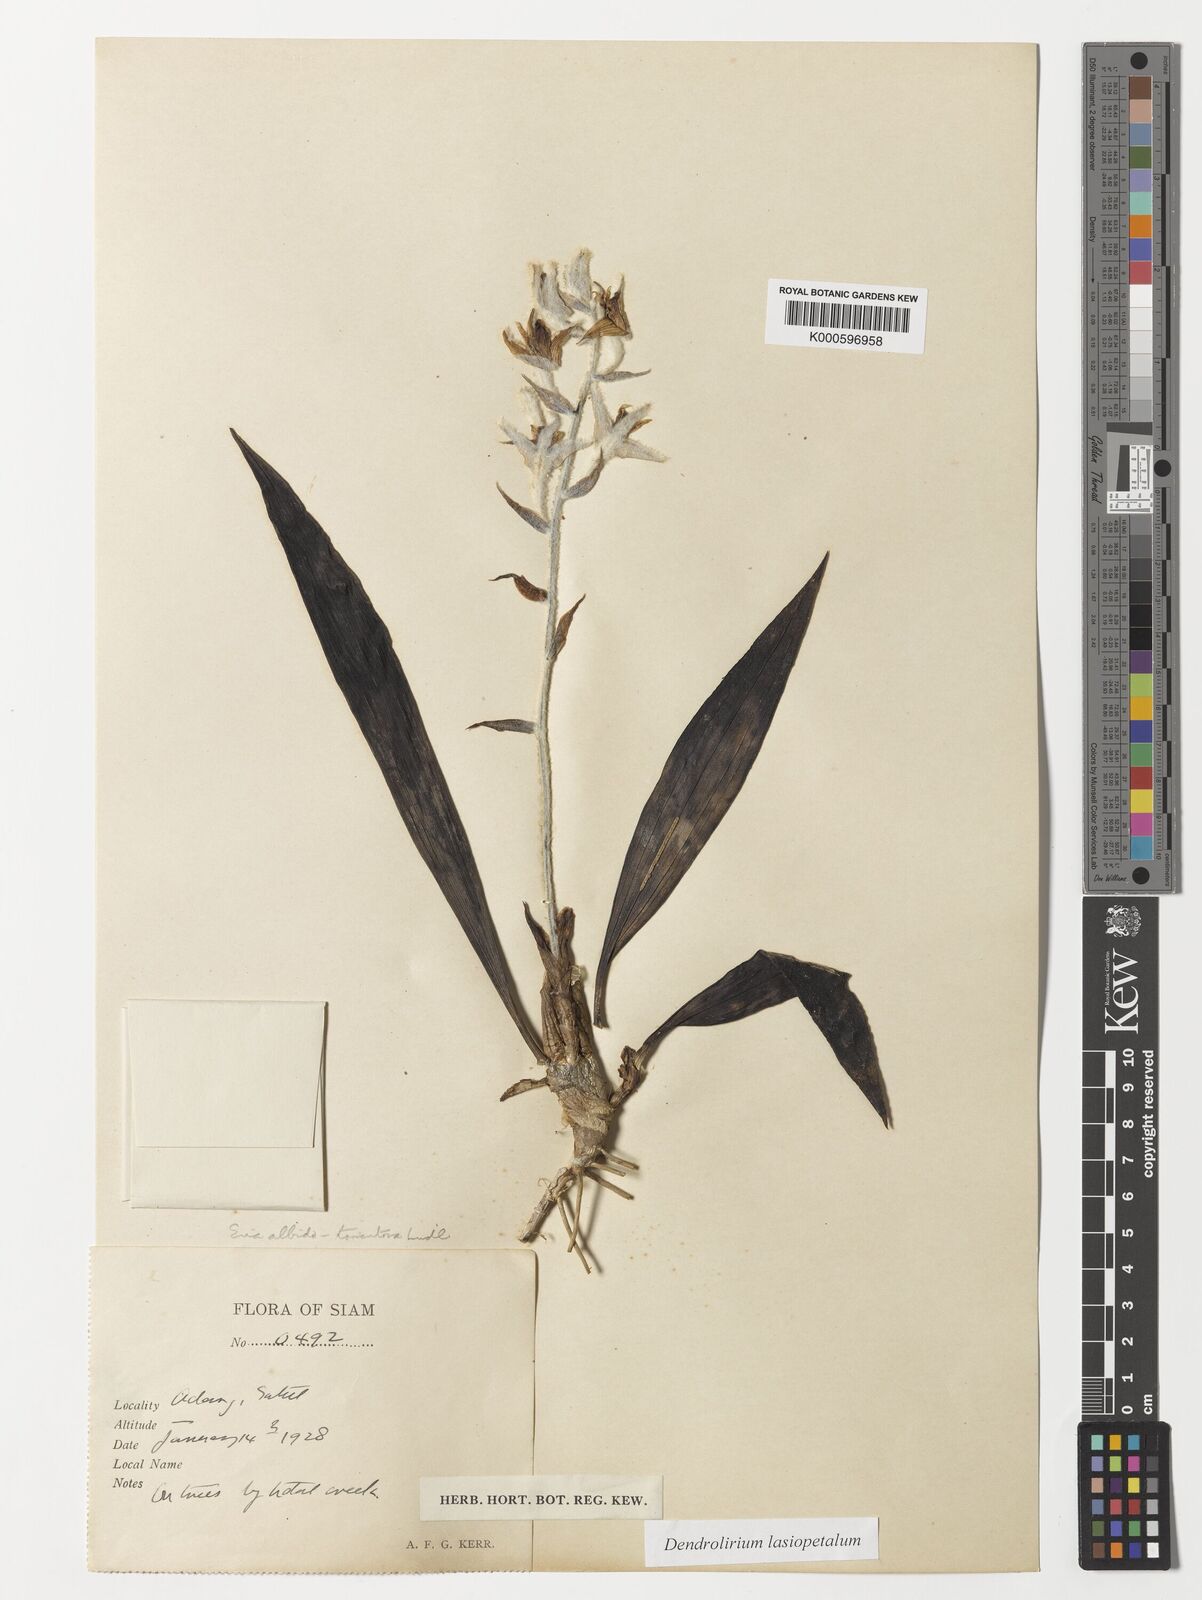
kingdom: Plantae
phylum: Tracheophyta
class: Liliopsida
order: Asparagales
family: Orchidaceae
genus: Dendrolirium
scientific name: Dendrolirium lasiopetalum
